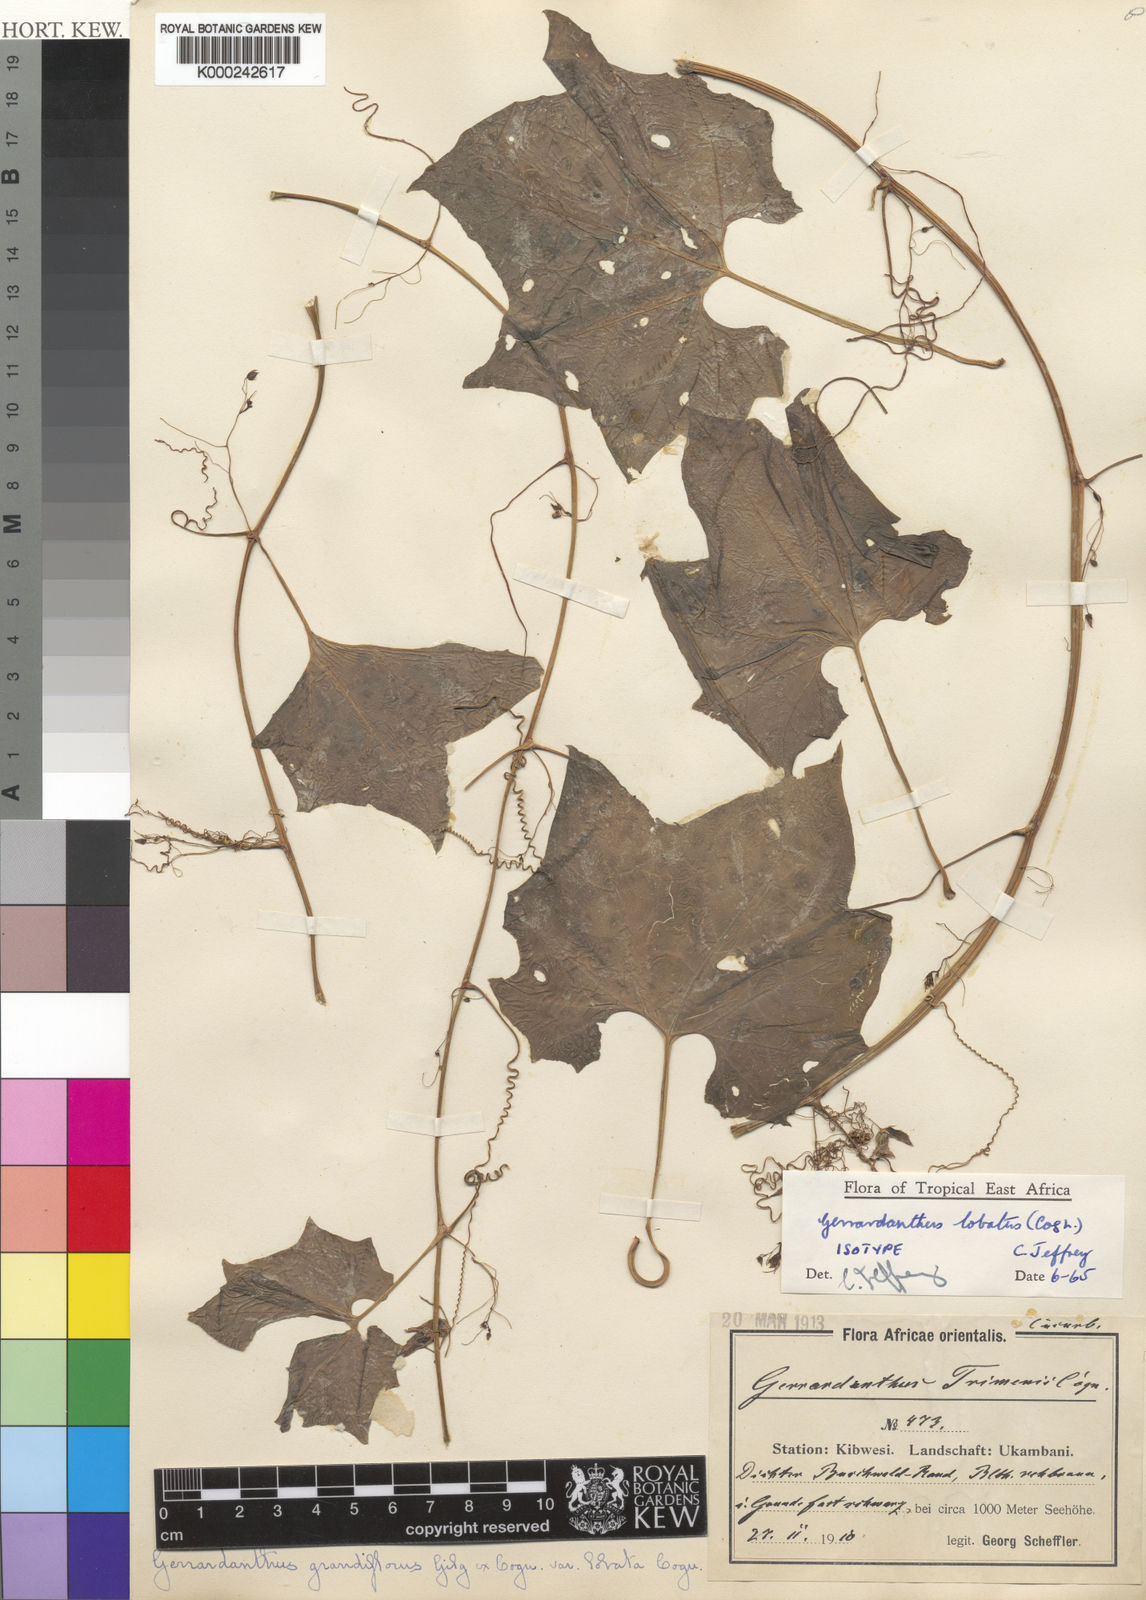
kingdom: Plantae
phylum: Tracheophyta
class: Magnoliopsida
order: Cucurbitales
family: Cucurbitaceae
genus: Gerrardanthus
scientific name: Gerrardanthus lobatus
